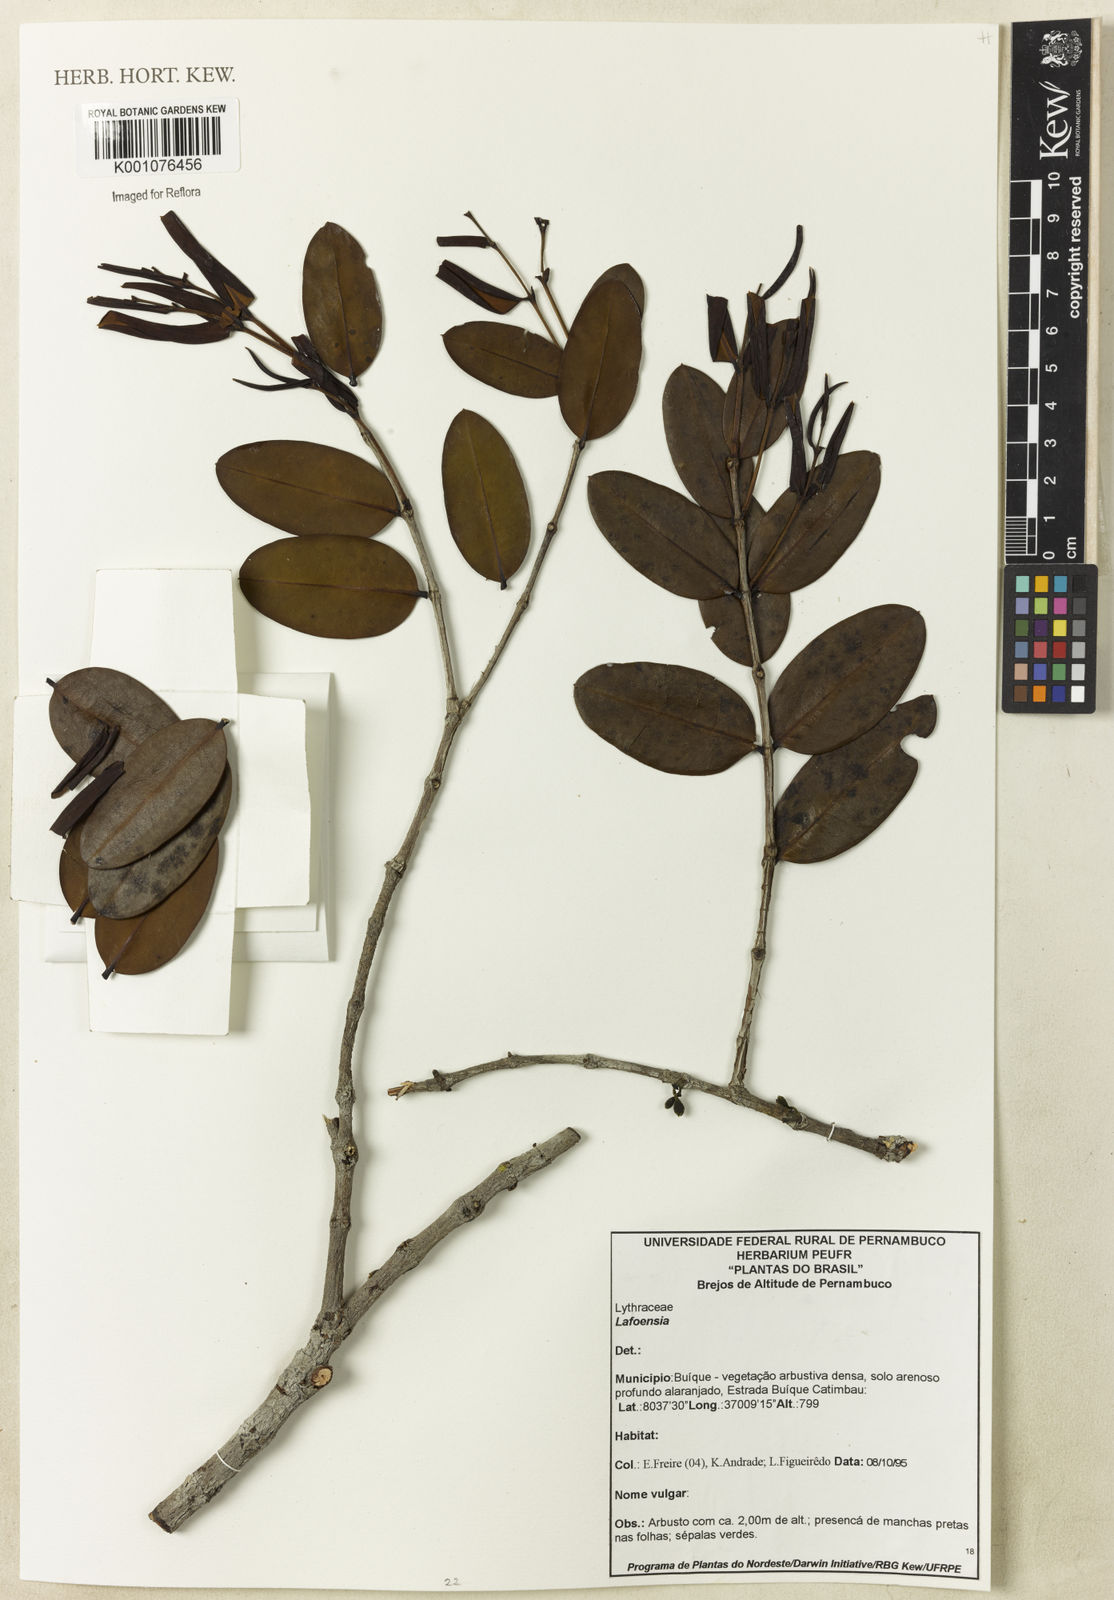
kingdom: Plantae
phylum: Tracheophyta
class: Magnoliopsida
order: Myrtales
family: Lythraceae
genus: Lafoensia
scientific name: Lafoensia
